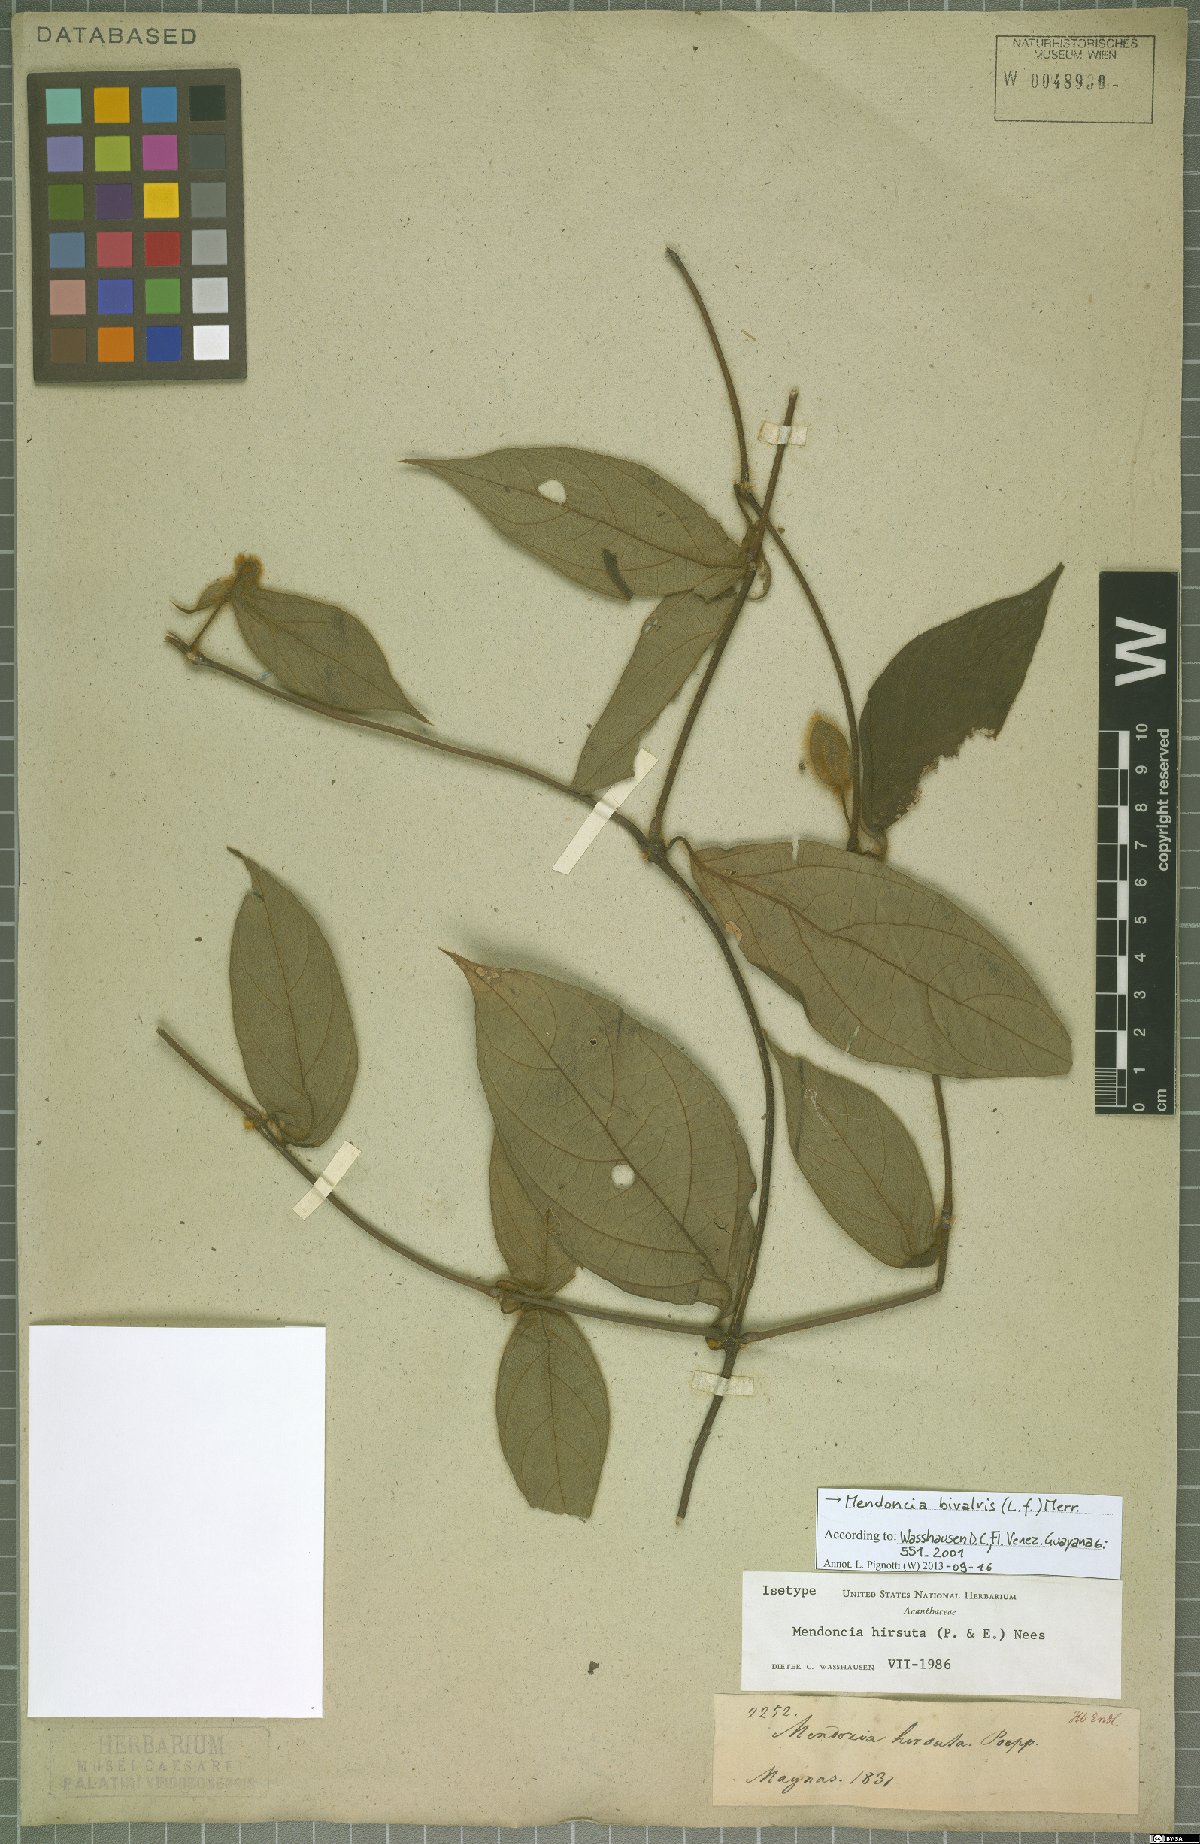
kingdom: Plantae
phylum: Tracheophyta
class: Magnoliopsida
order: Lamiales
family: Acanthaceae
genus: Mendoncia
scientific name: Mendoncia bivalvis
